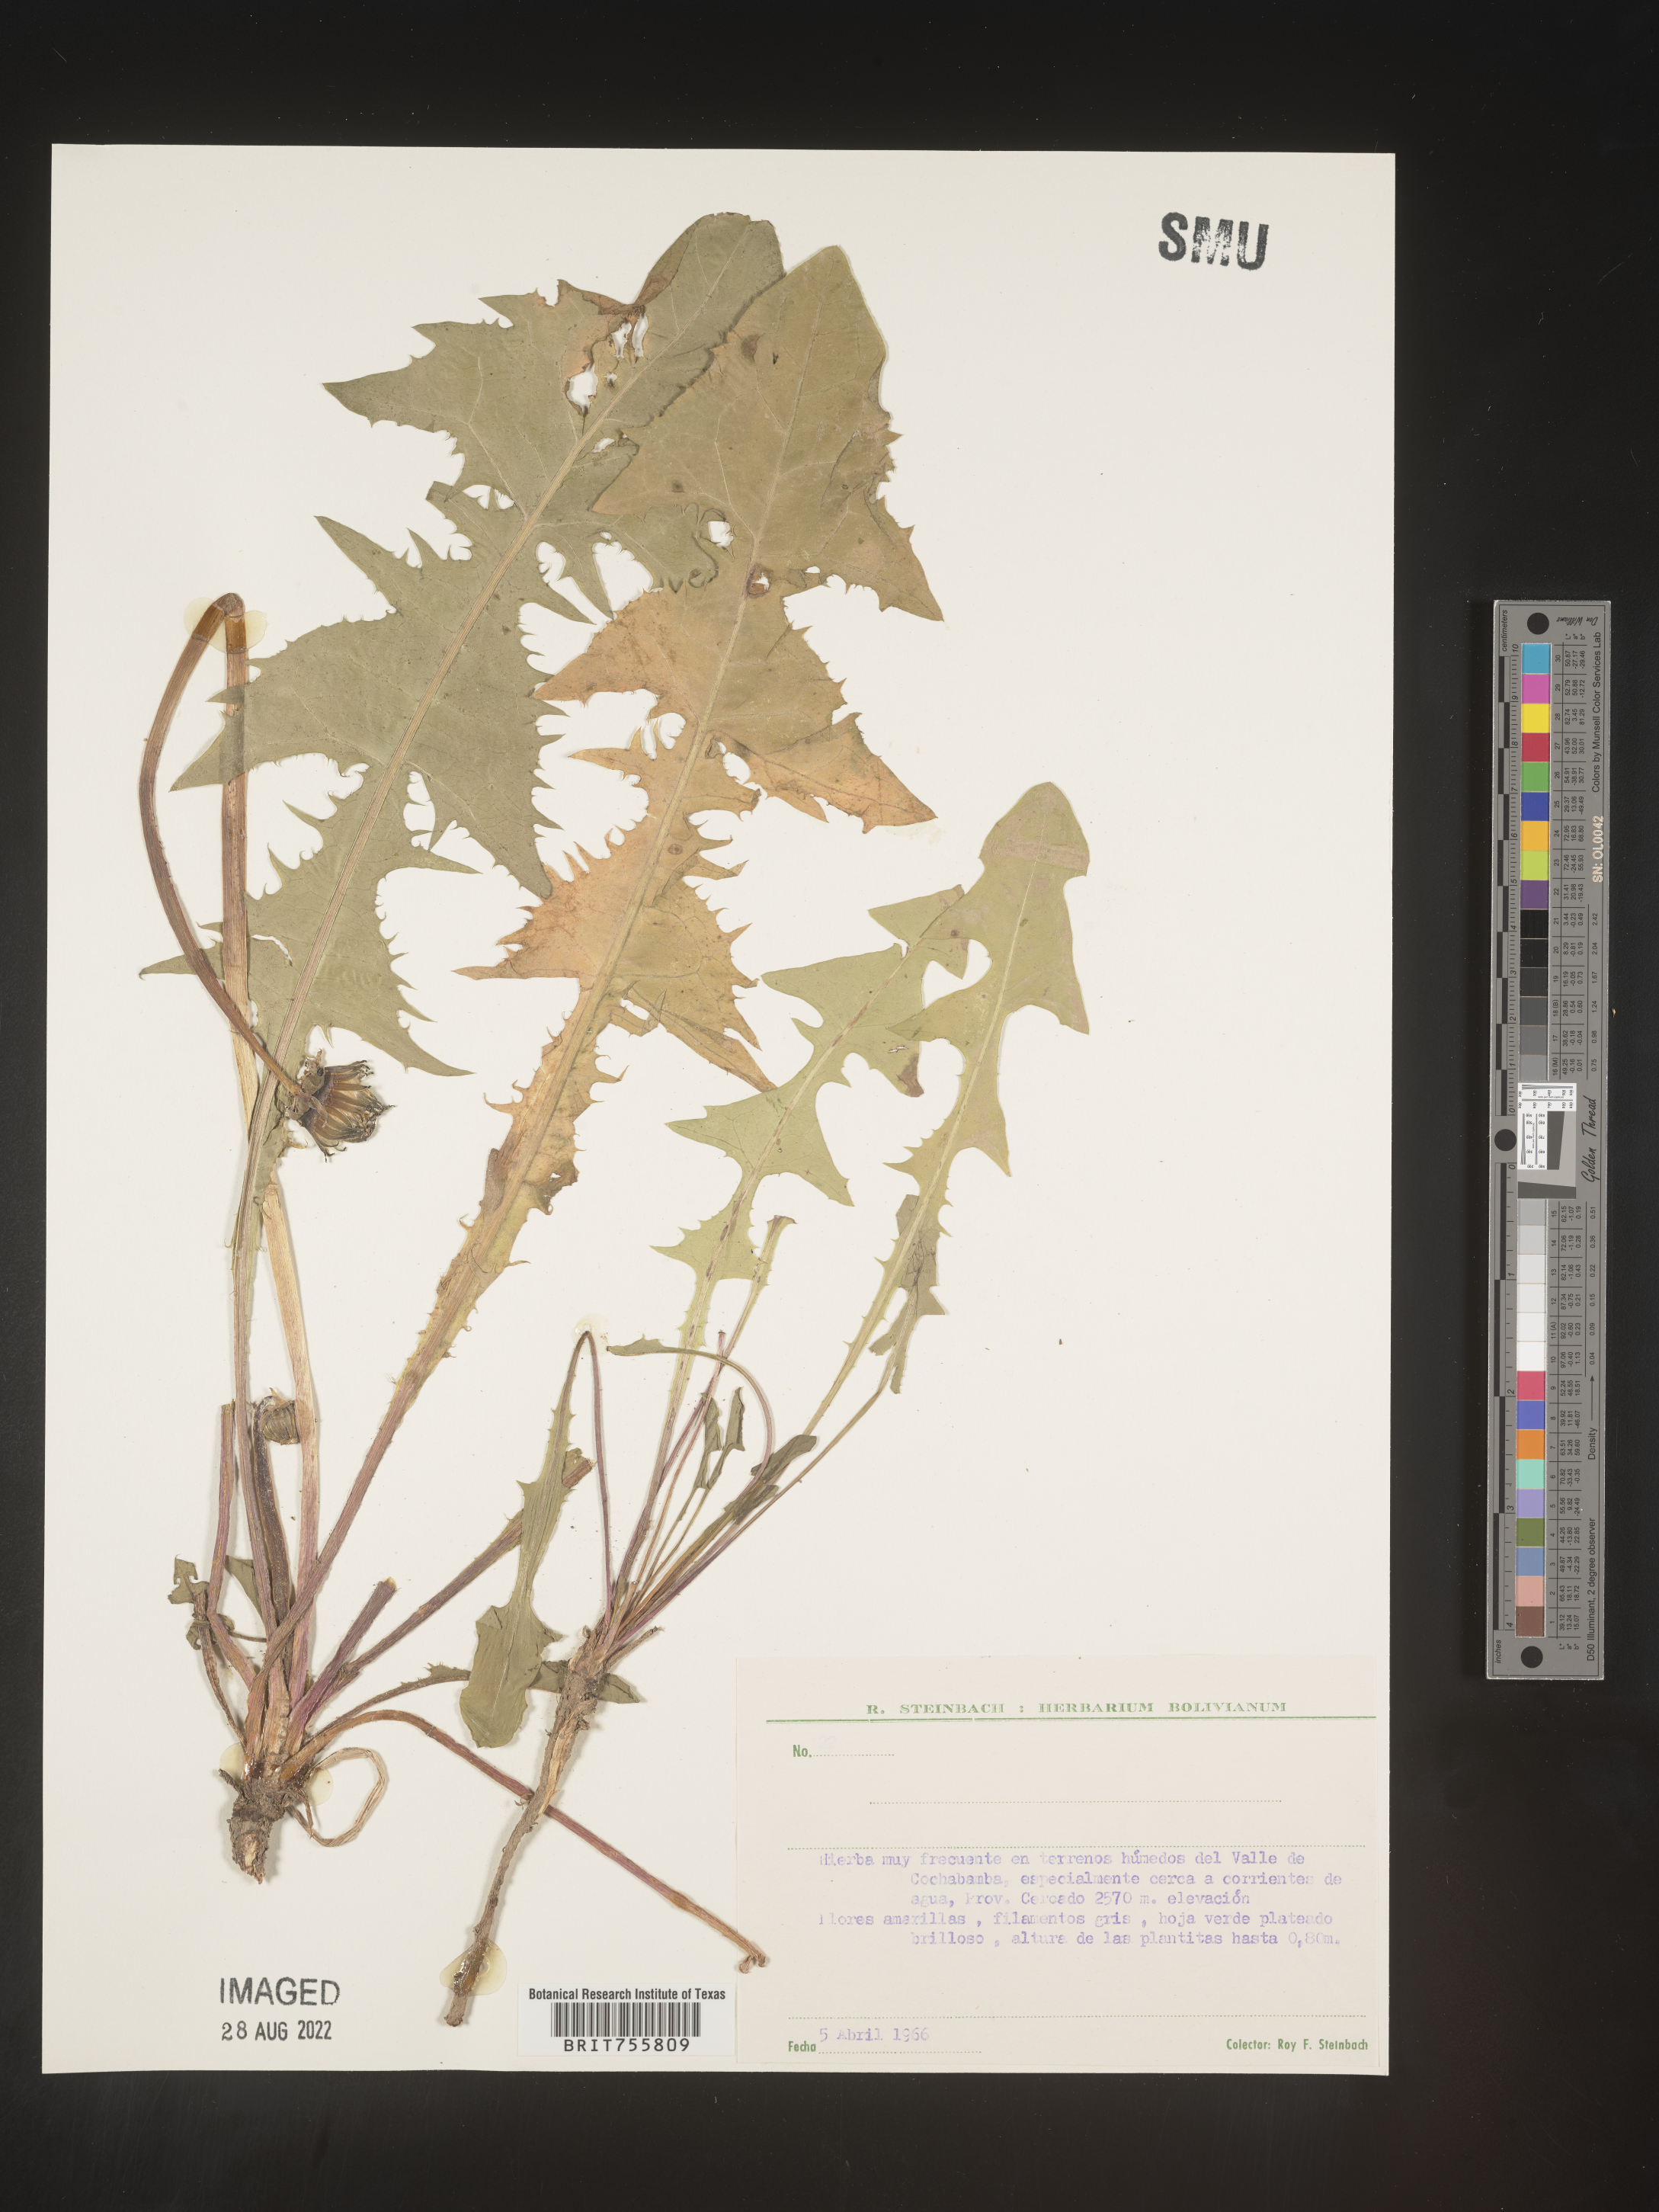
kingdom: Plantae
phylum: Tracheophyta
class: Magnoliopsida
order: Asterales
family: Asteraceae
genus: Taraxacum
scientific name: Taraxacum
